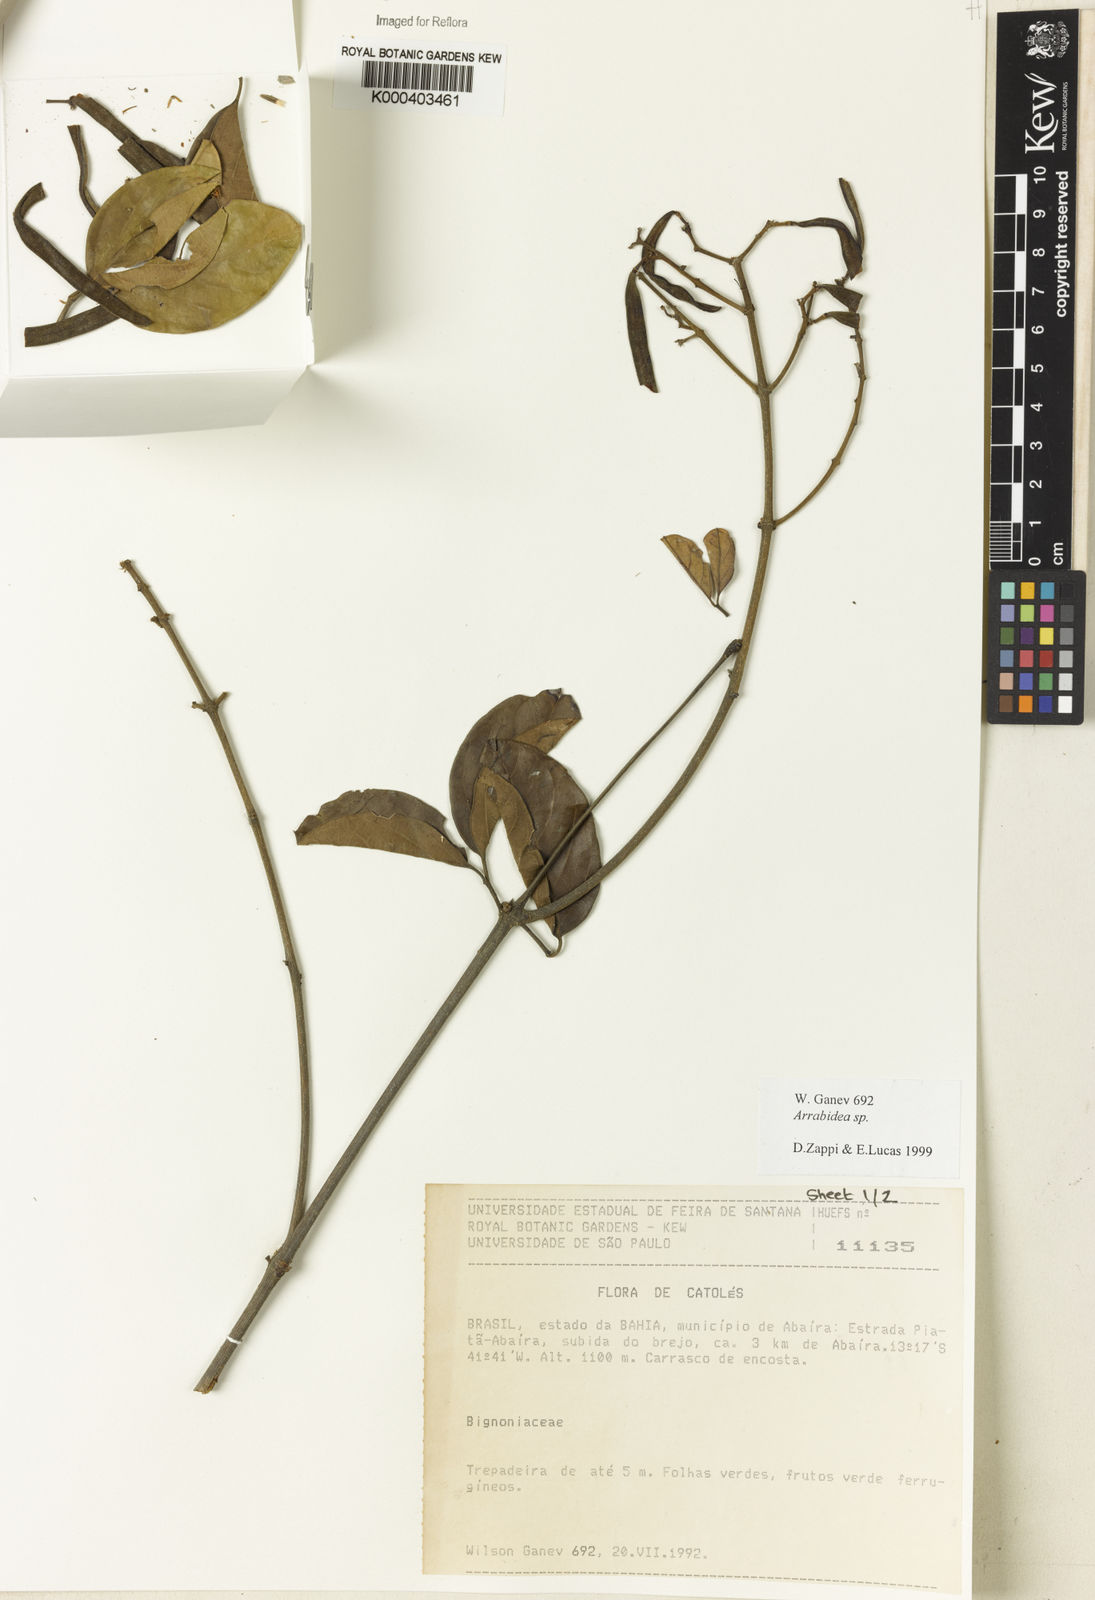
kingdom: Plantae
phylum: Tracheophyta
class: Magnoliopsida
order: Rosales
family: Rhamnaceae
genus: Arrabidaea
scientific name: Arrabidaea
